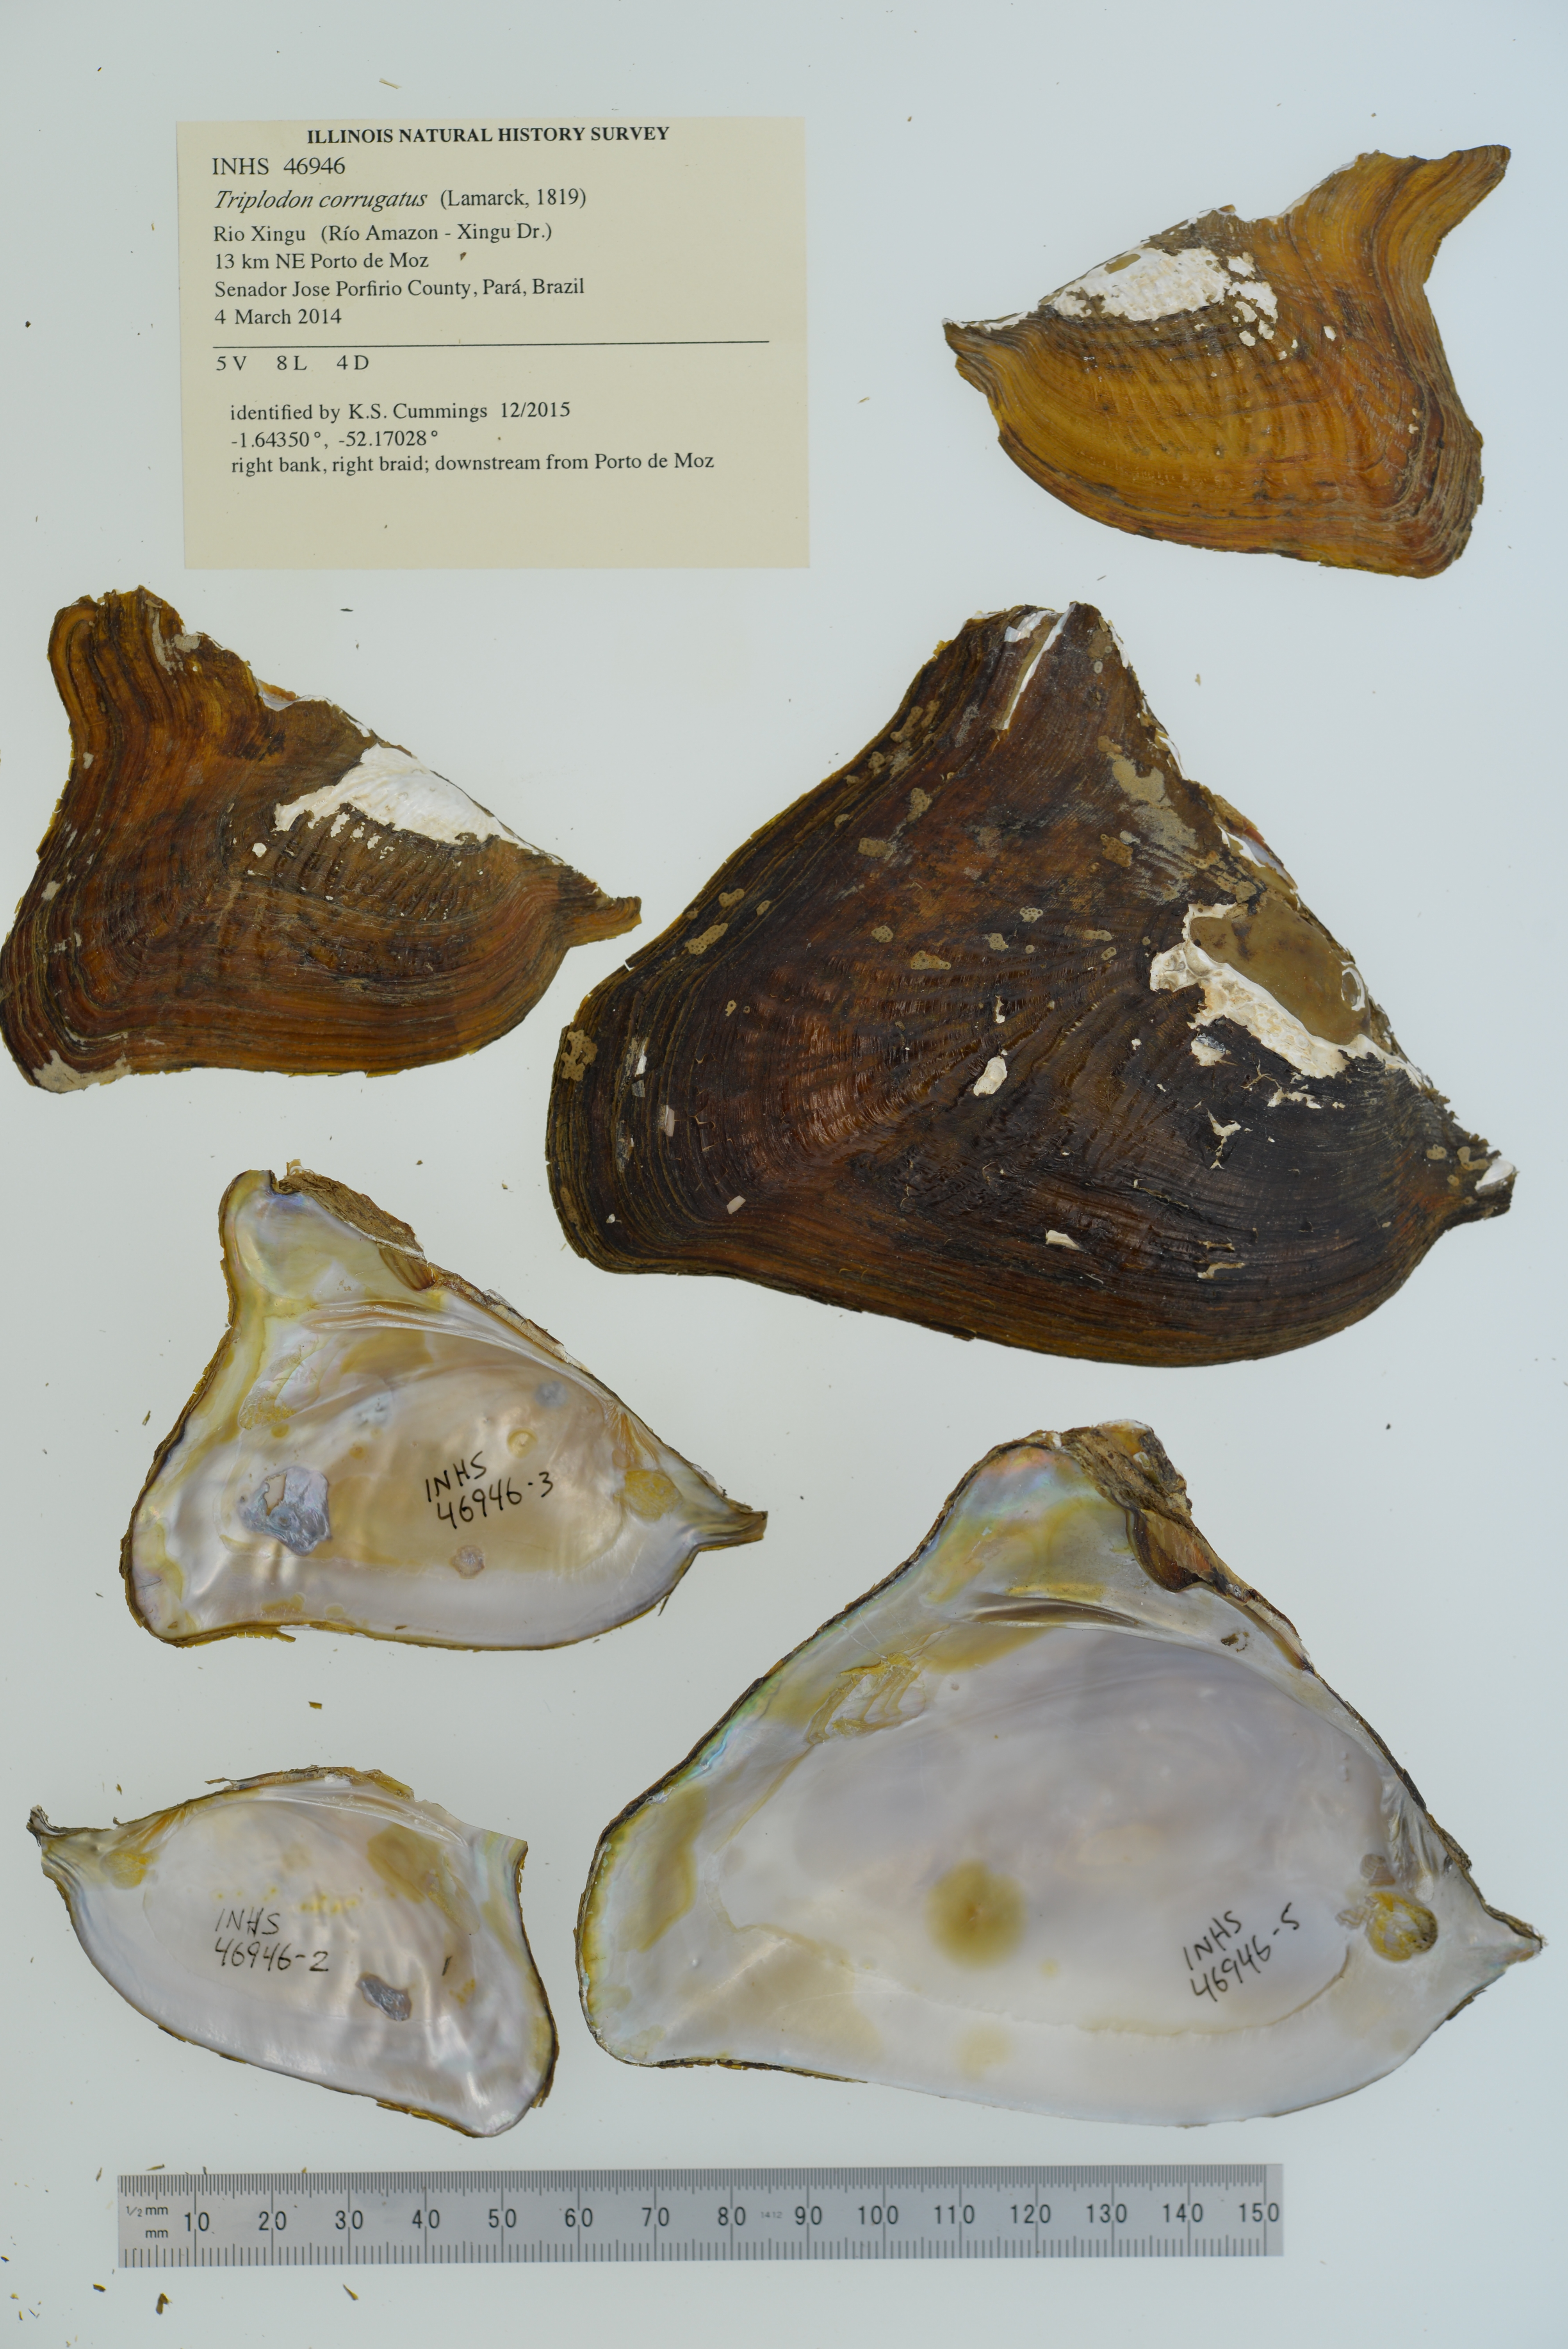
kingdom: Animalia
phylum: Mollusca
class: Bivalvia
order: Unionida
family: Hyriidae
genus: Triplodon
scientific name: Triplodon corrugatus
